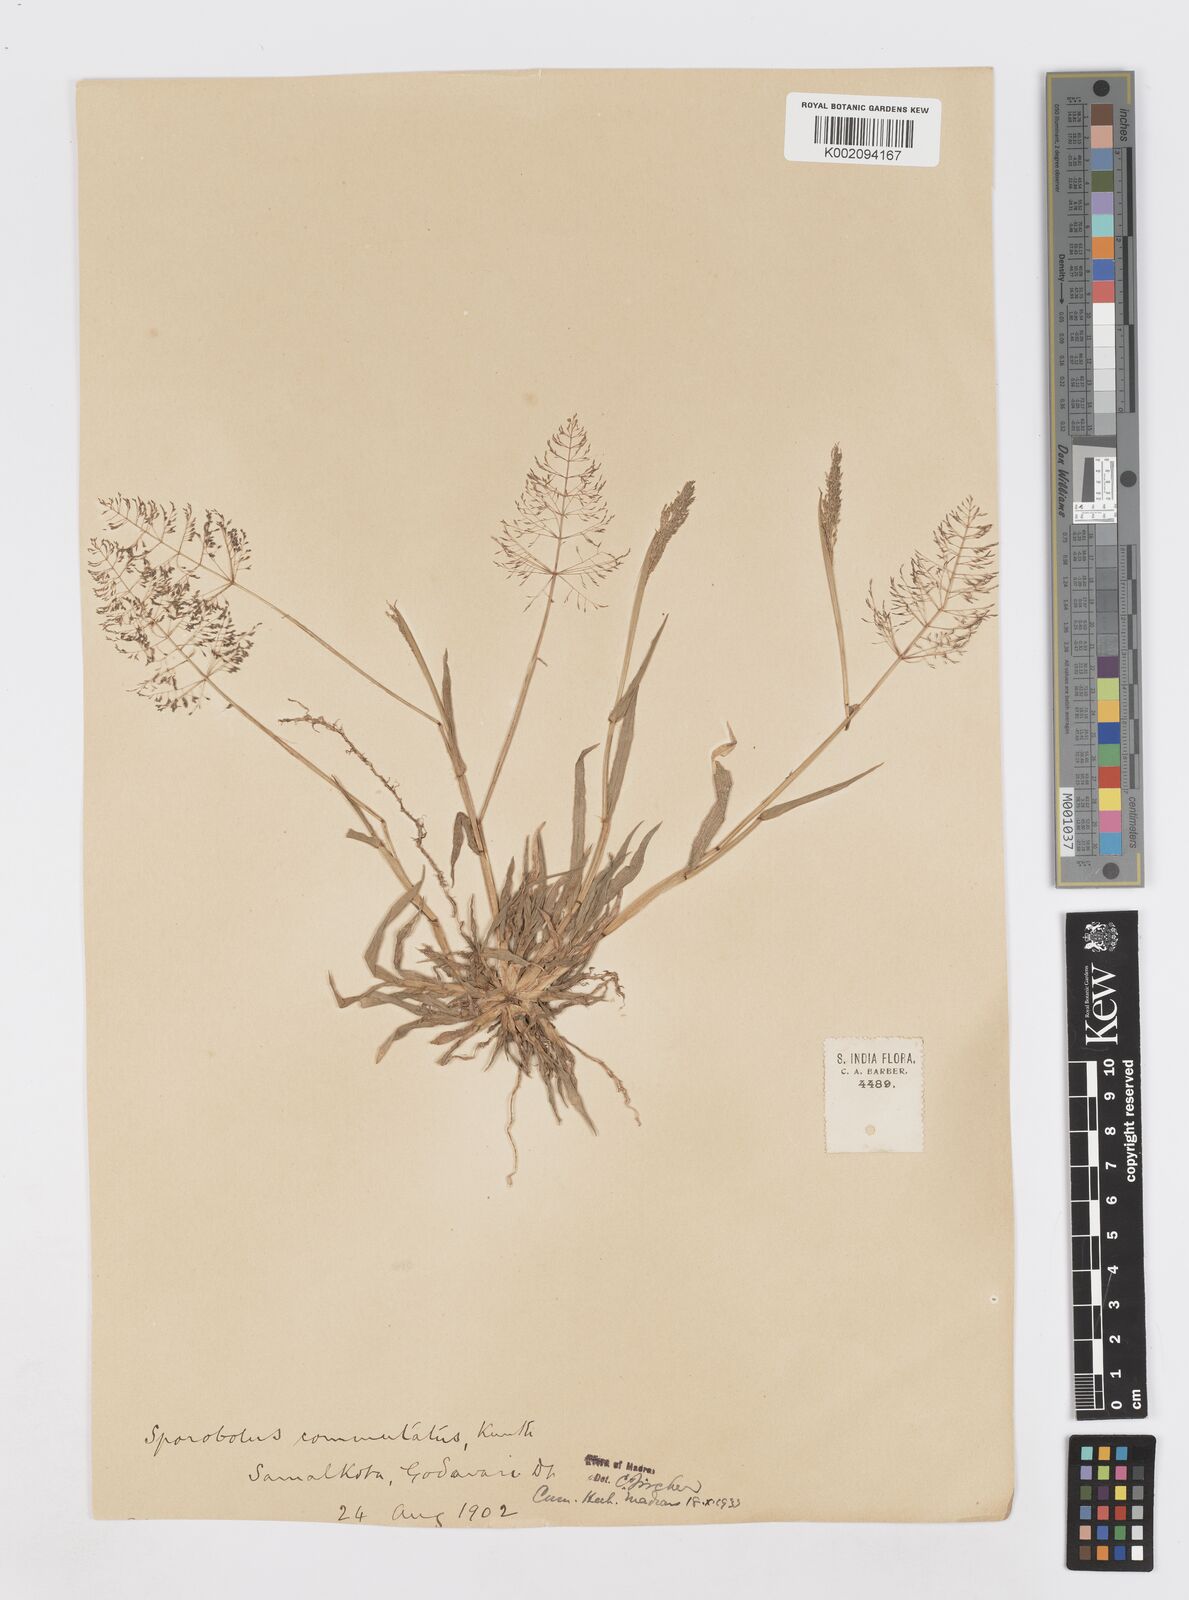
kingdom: Plantae
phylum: Tracheophyta
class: Liliopsida
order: Poales
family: Poaceae
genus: Sporobolus
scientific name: Sporobolus coromandelianus
